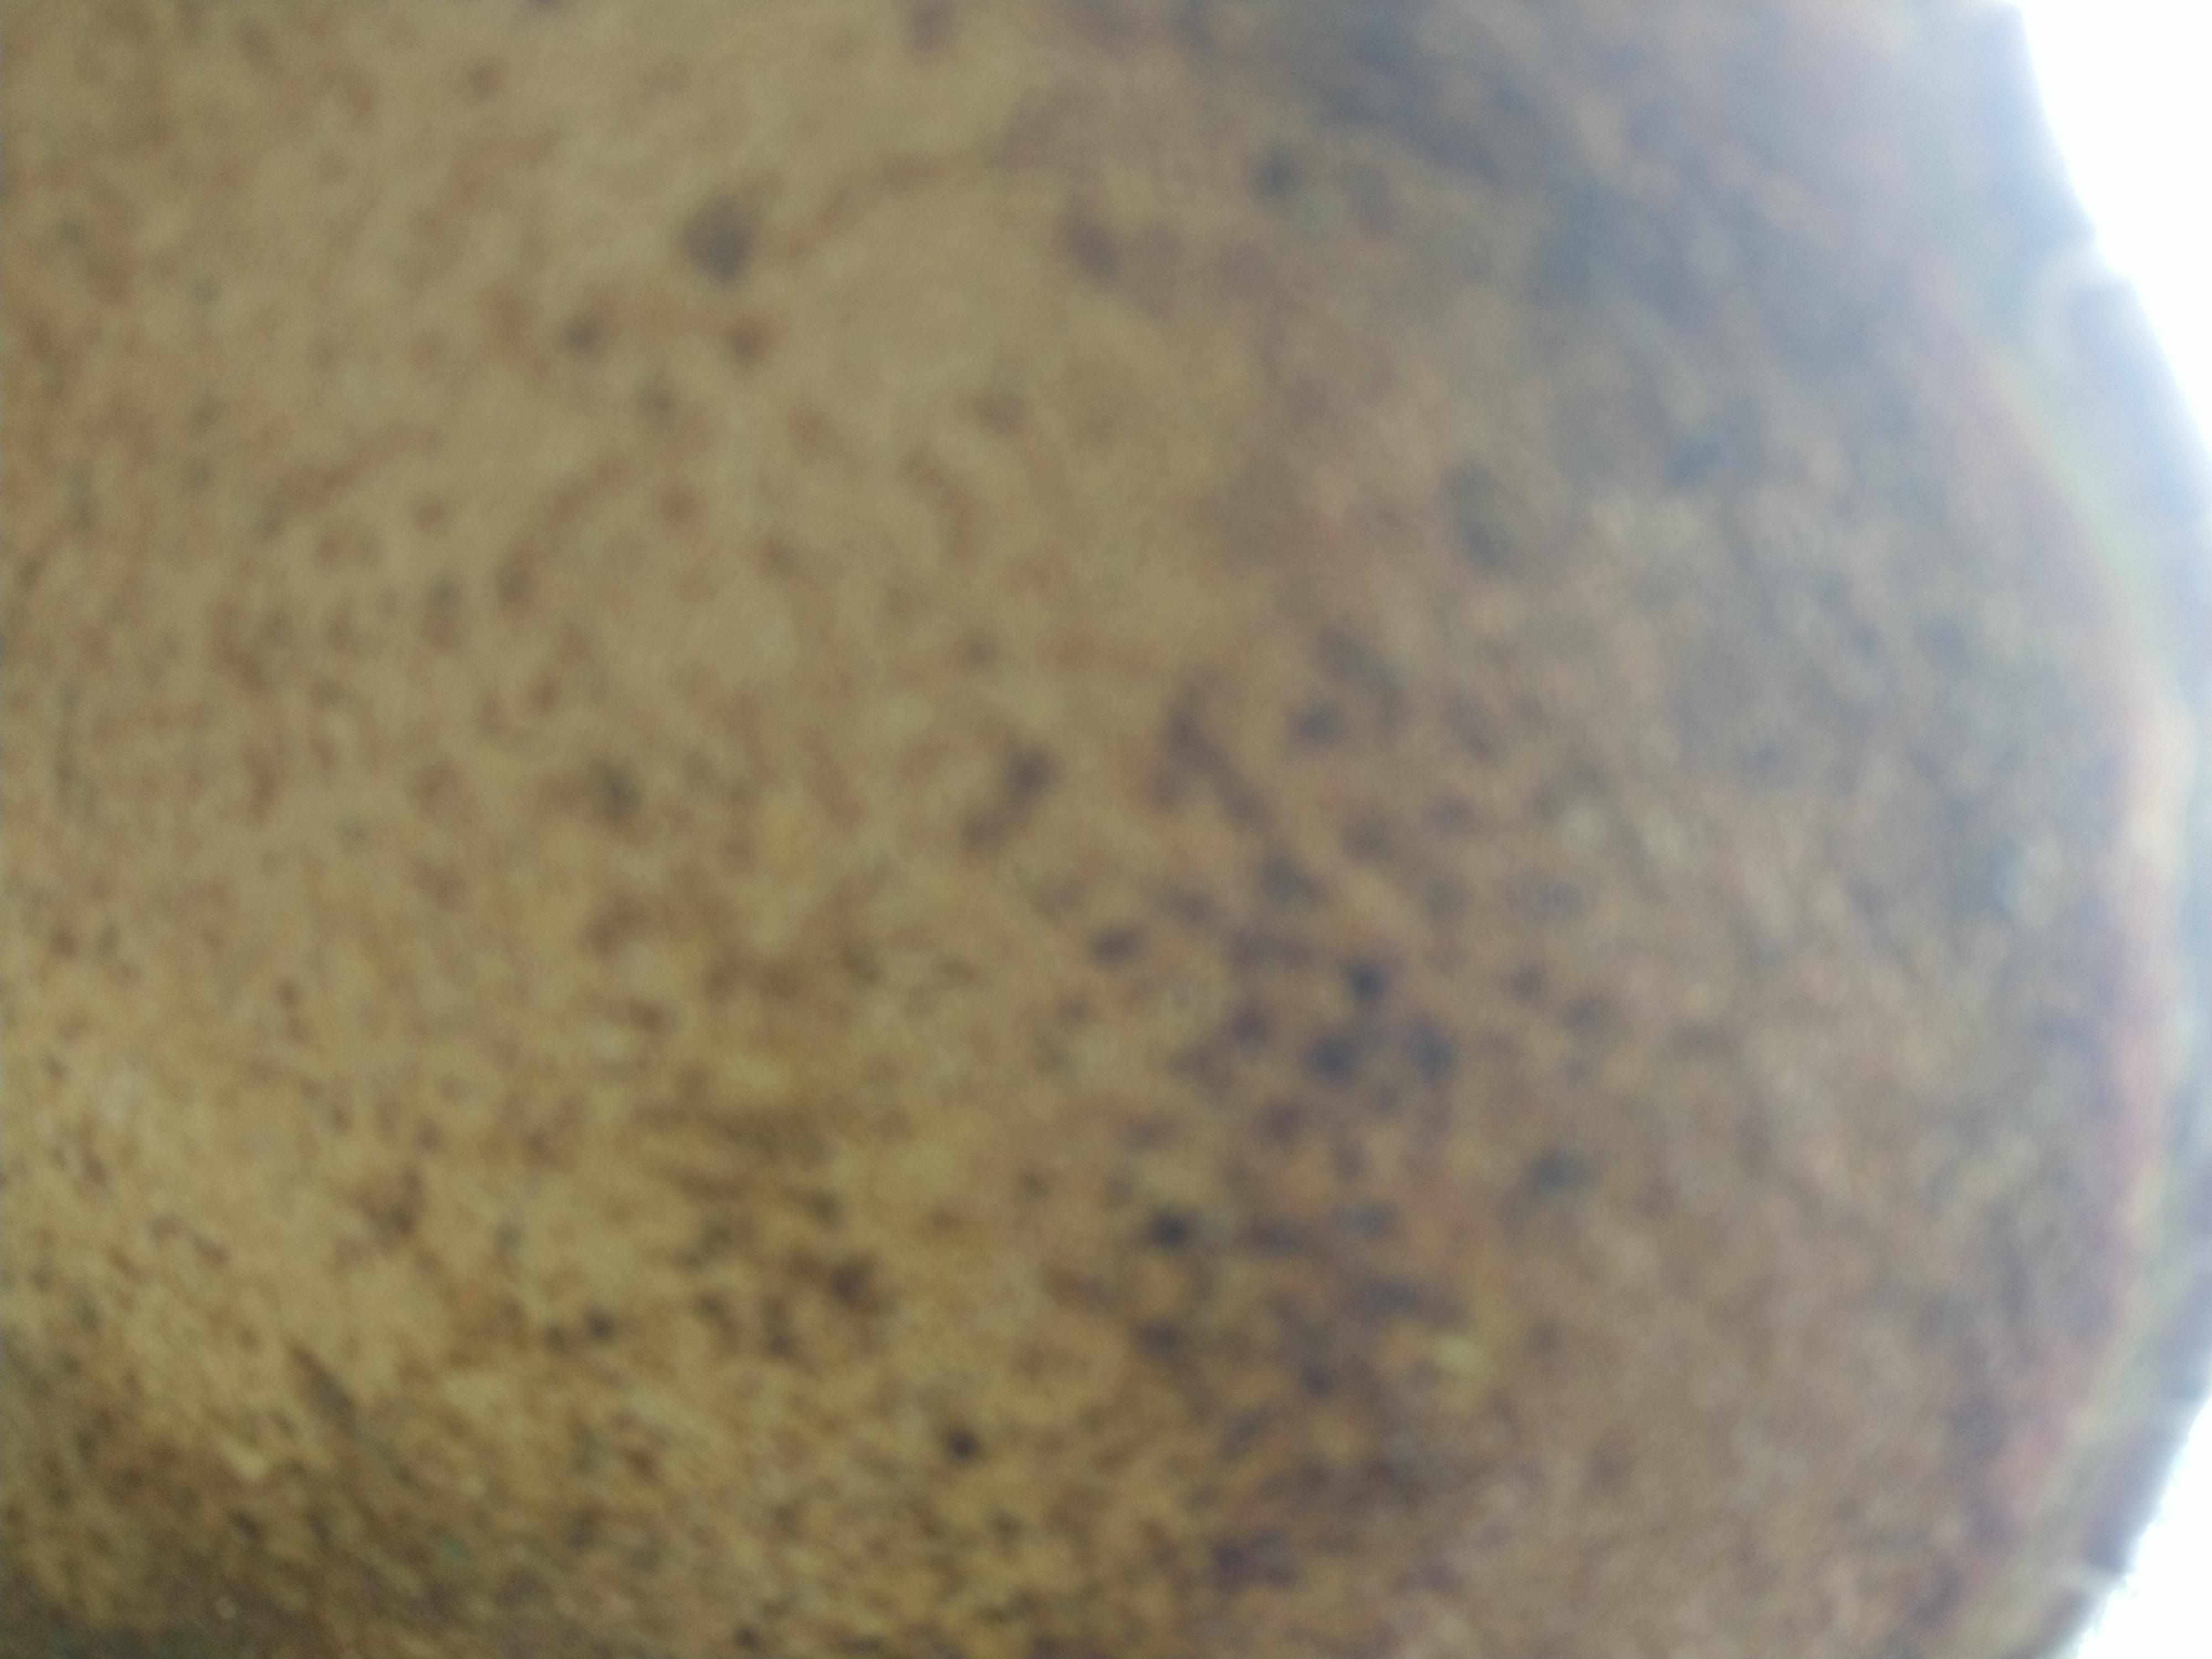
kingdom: Fungi
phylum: Basidiomycota
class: Agaricomycetes
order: Polyporales
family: Fomitopsidaceae
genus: Fomitopsis
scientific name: Fomitopsis betulina
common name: birkeporesvamp
